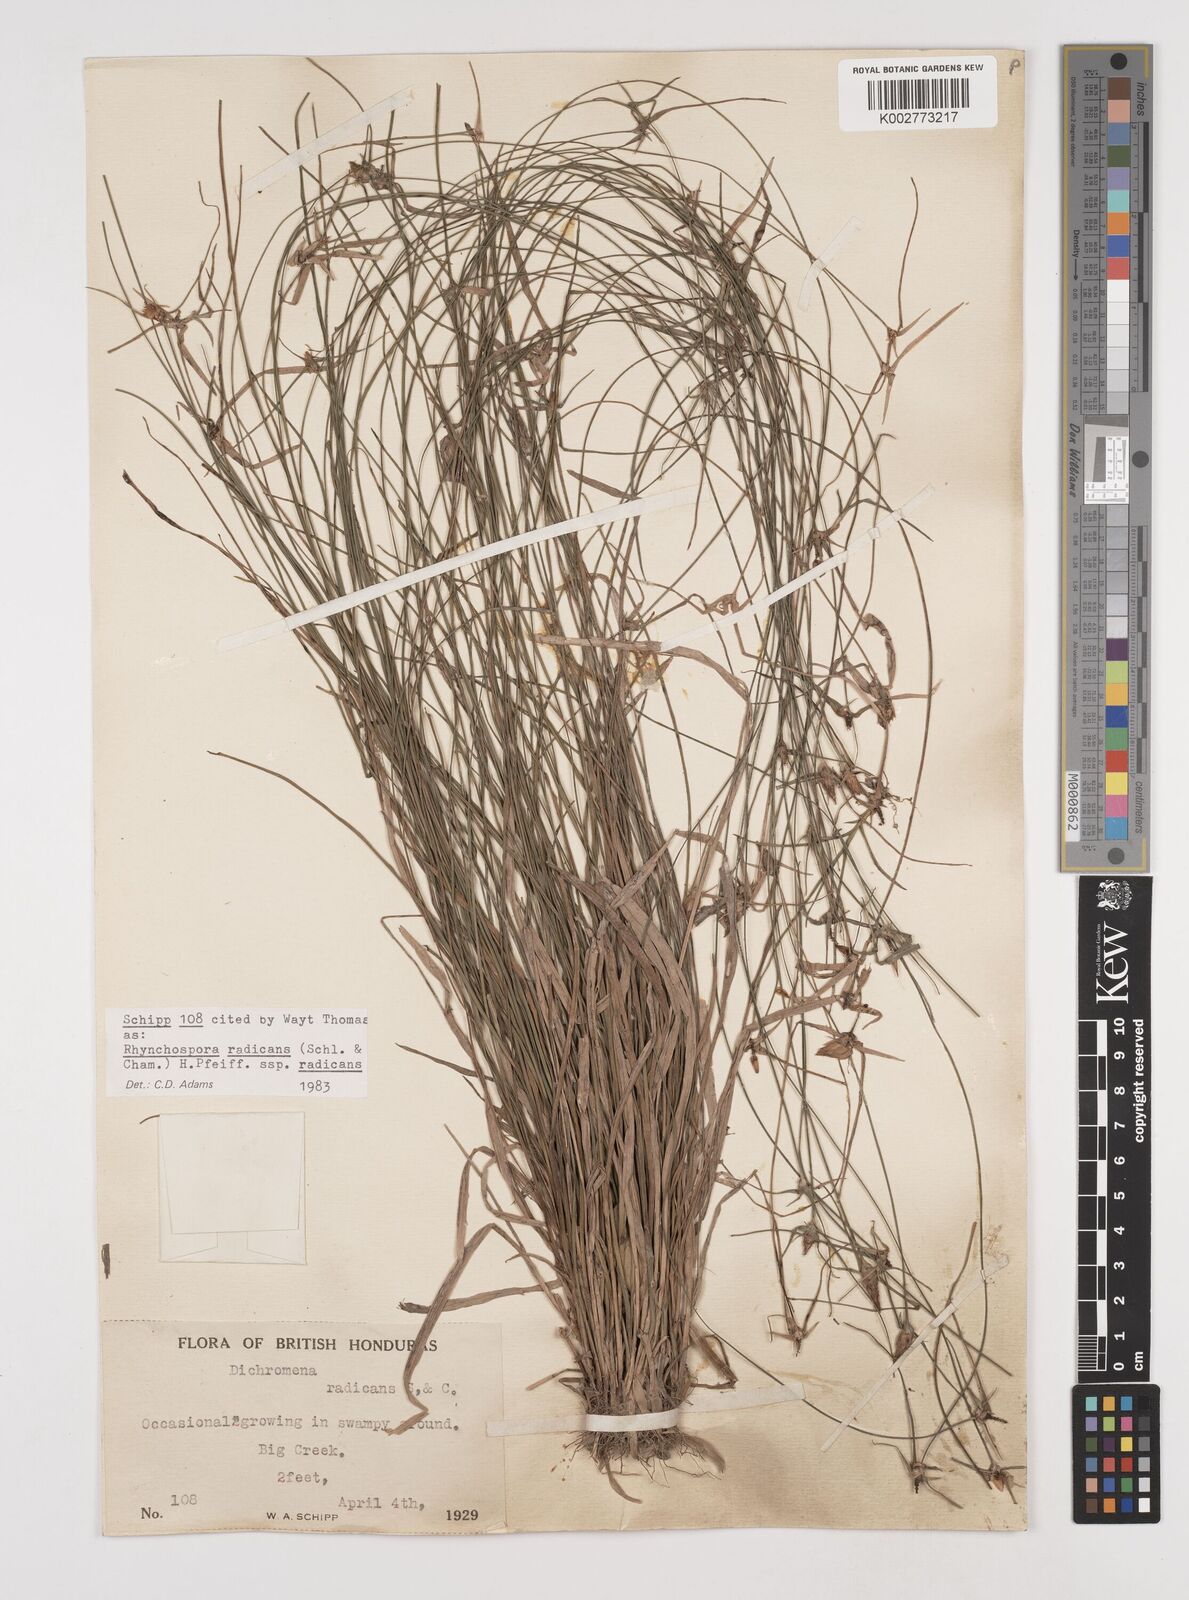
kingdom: Plantae
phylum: Tracheophyta
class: Liliopsida
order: Poales
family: Cyperaceae
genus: Rhynchospora
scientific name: Rhynchospora radicans
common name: Tropical whitetop
